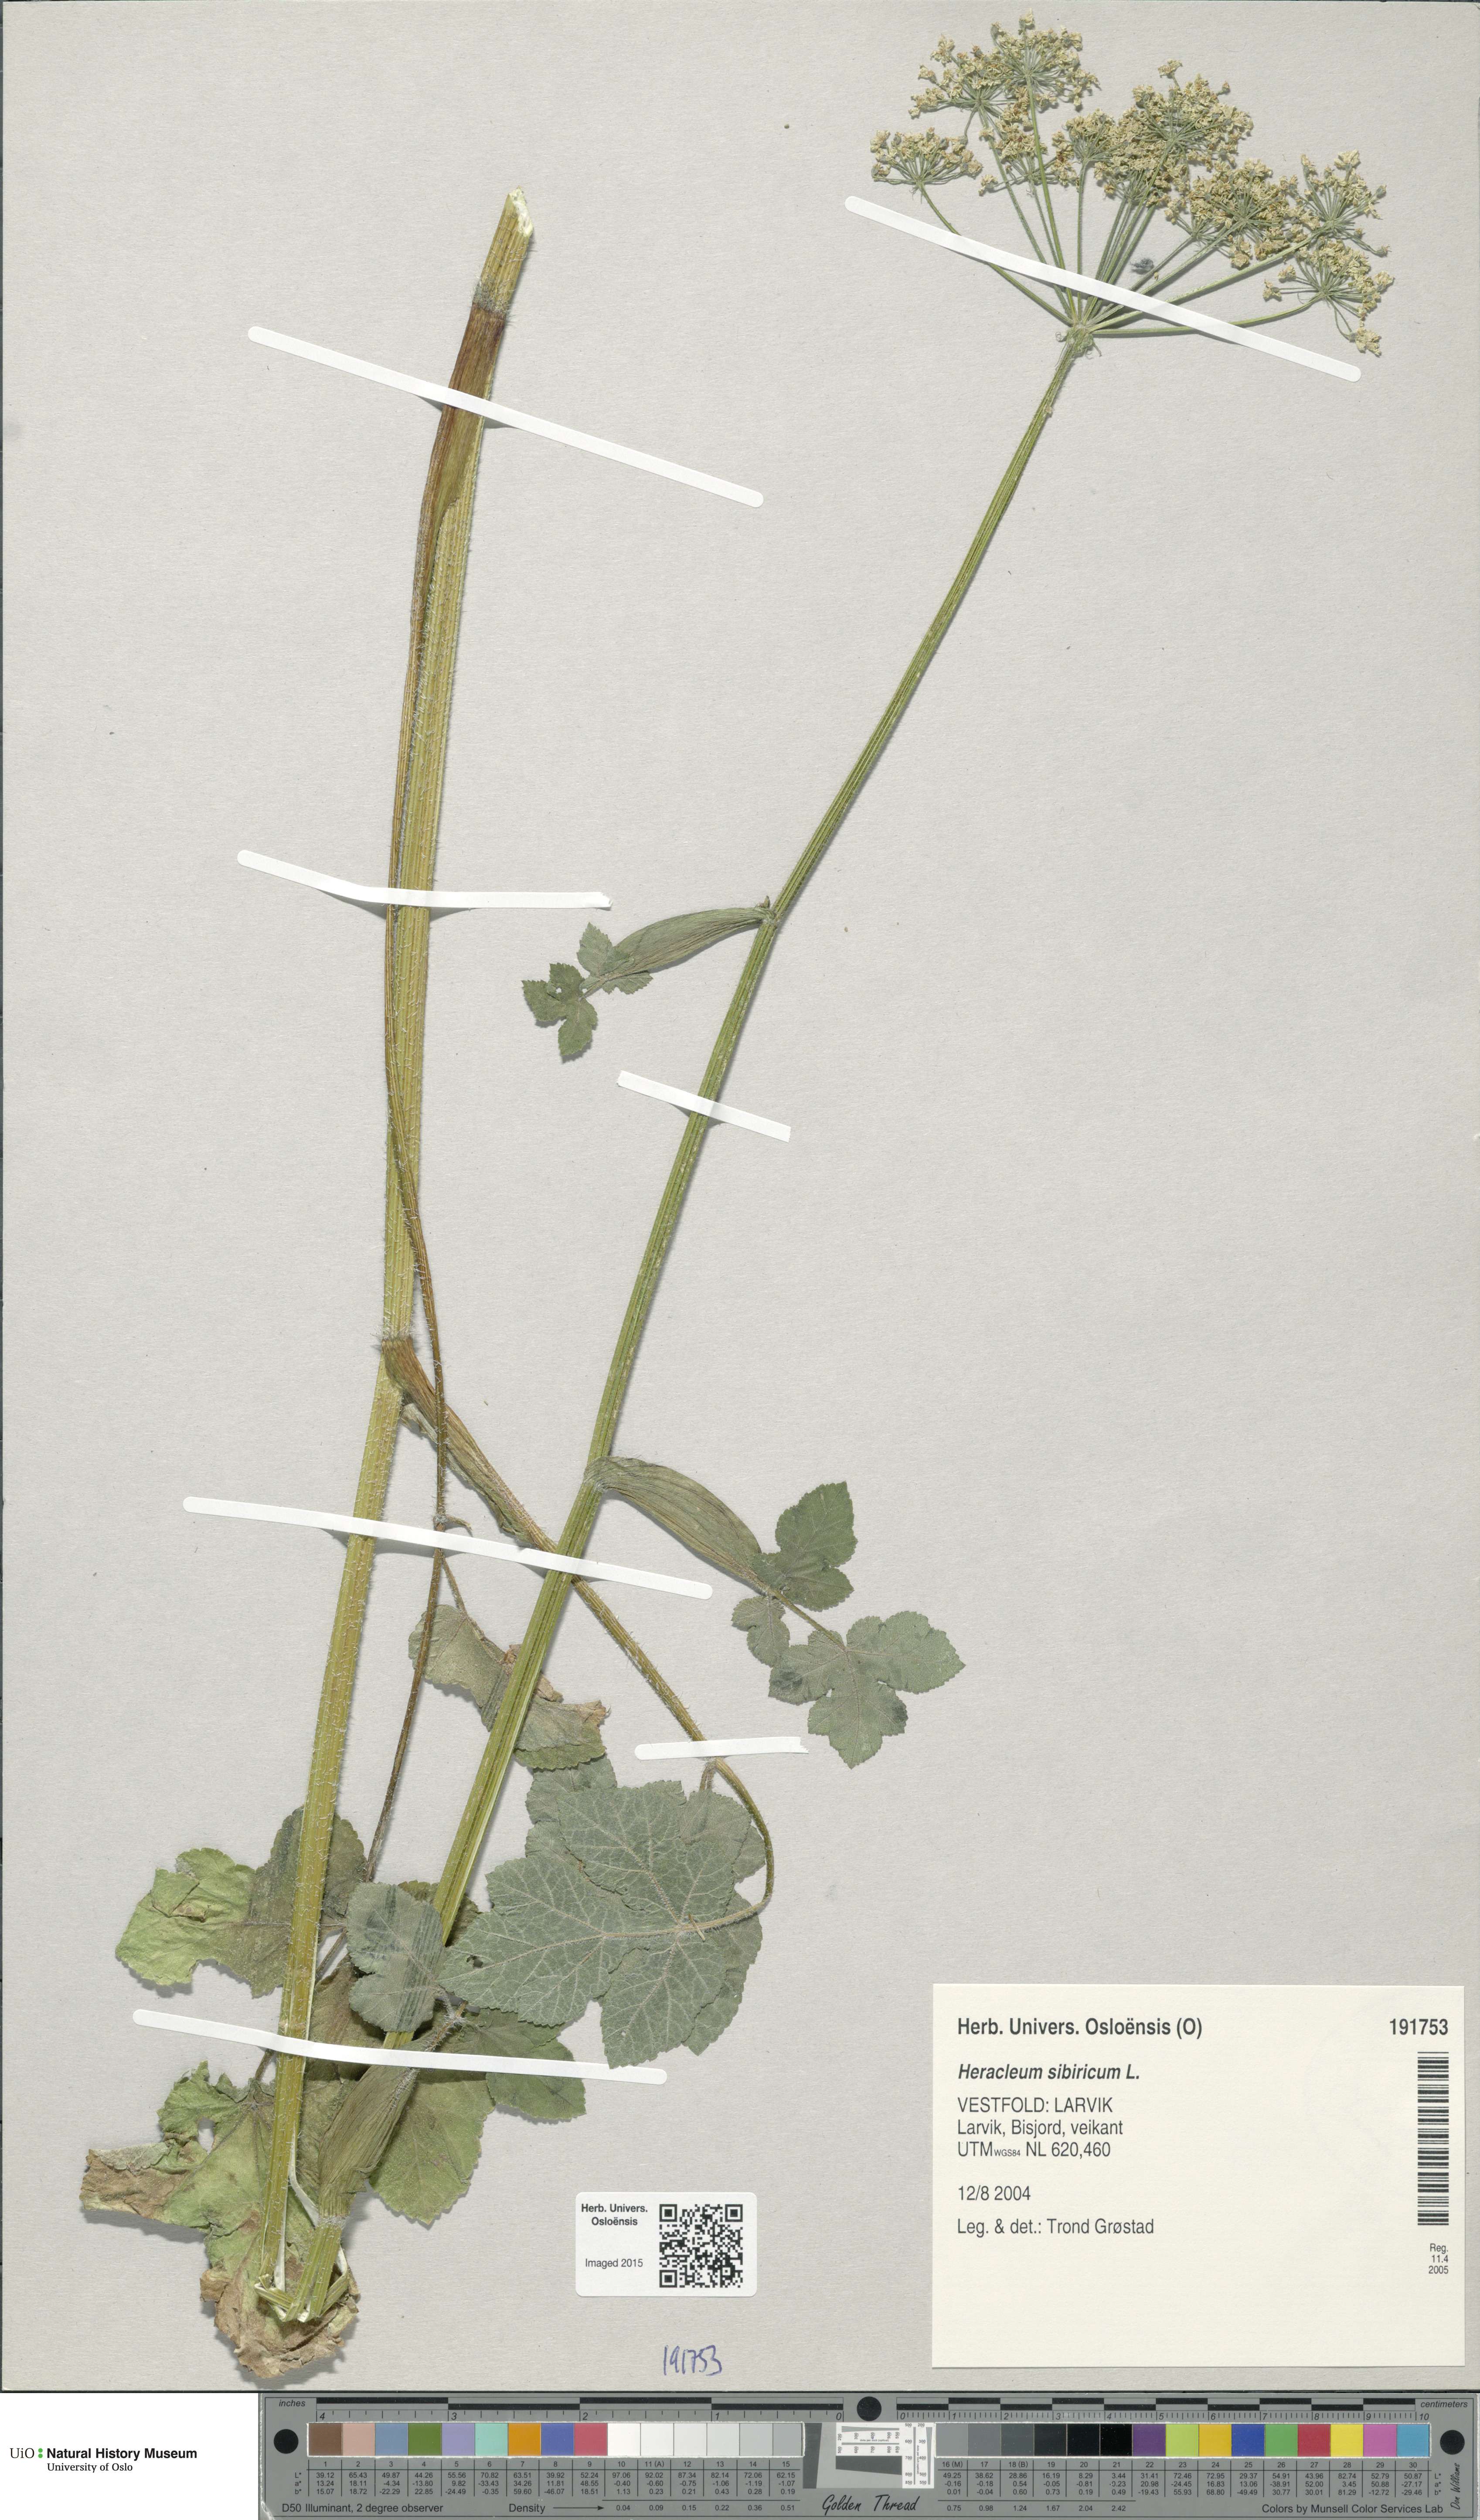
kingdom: Plantae
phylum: Tracheophyta
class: Magnoliopsida
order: Apiales
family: Apiaceae
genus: Heracleum
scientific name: Heracleum sphondylium
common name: Hogweed
